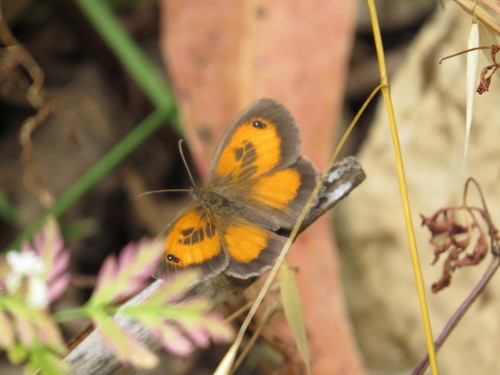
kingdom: Animalia
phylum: Arthropoda
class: Insecta
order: Lepidoptera
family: Nymphalidae
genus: Pyronia
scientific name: Pyronia cecilia
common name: Southern gatekeeper
